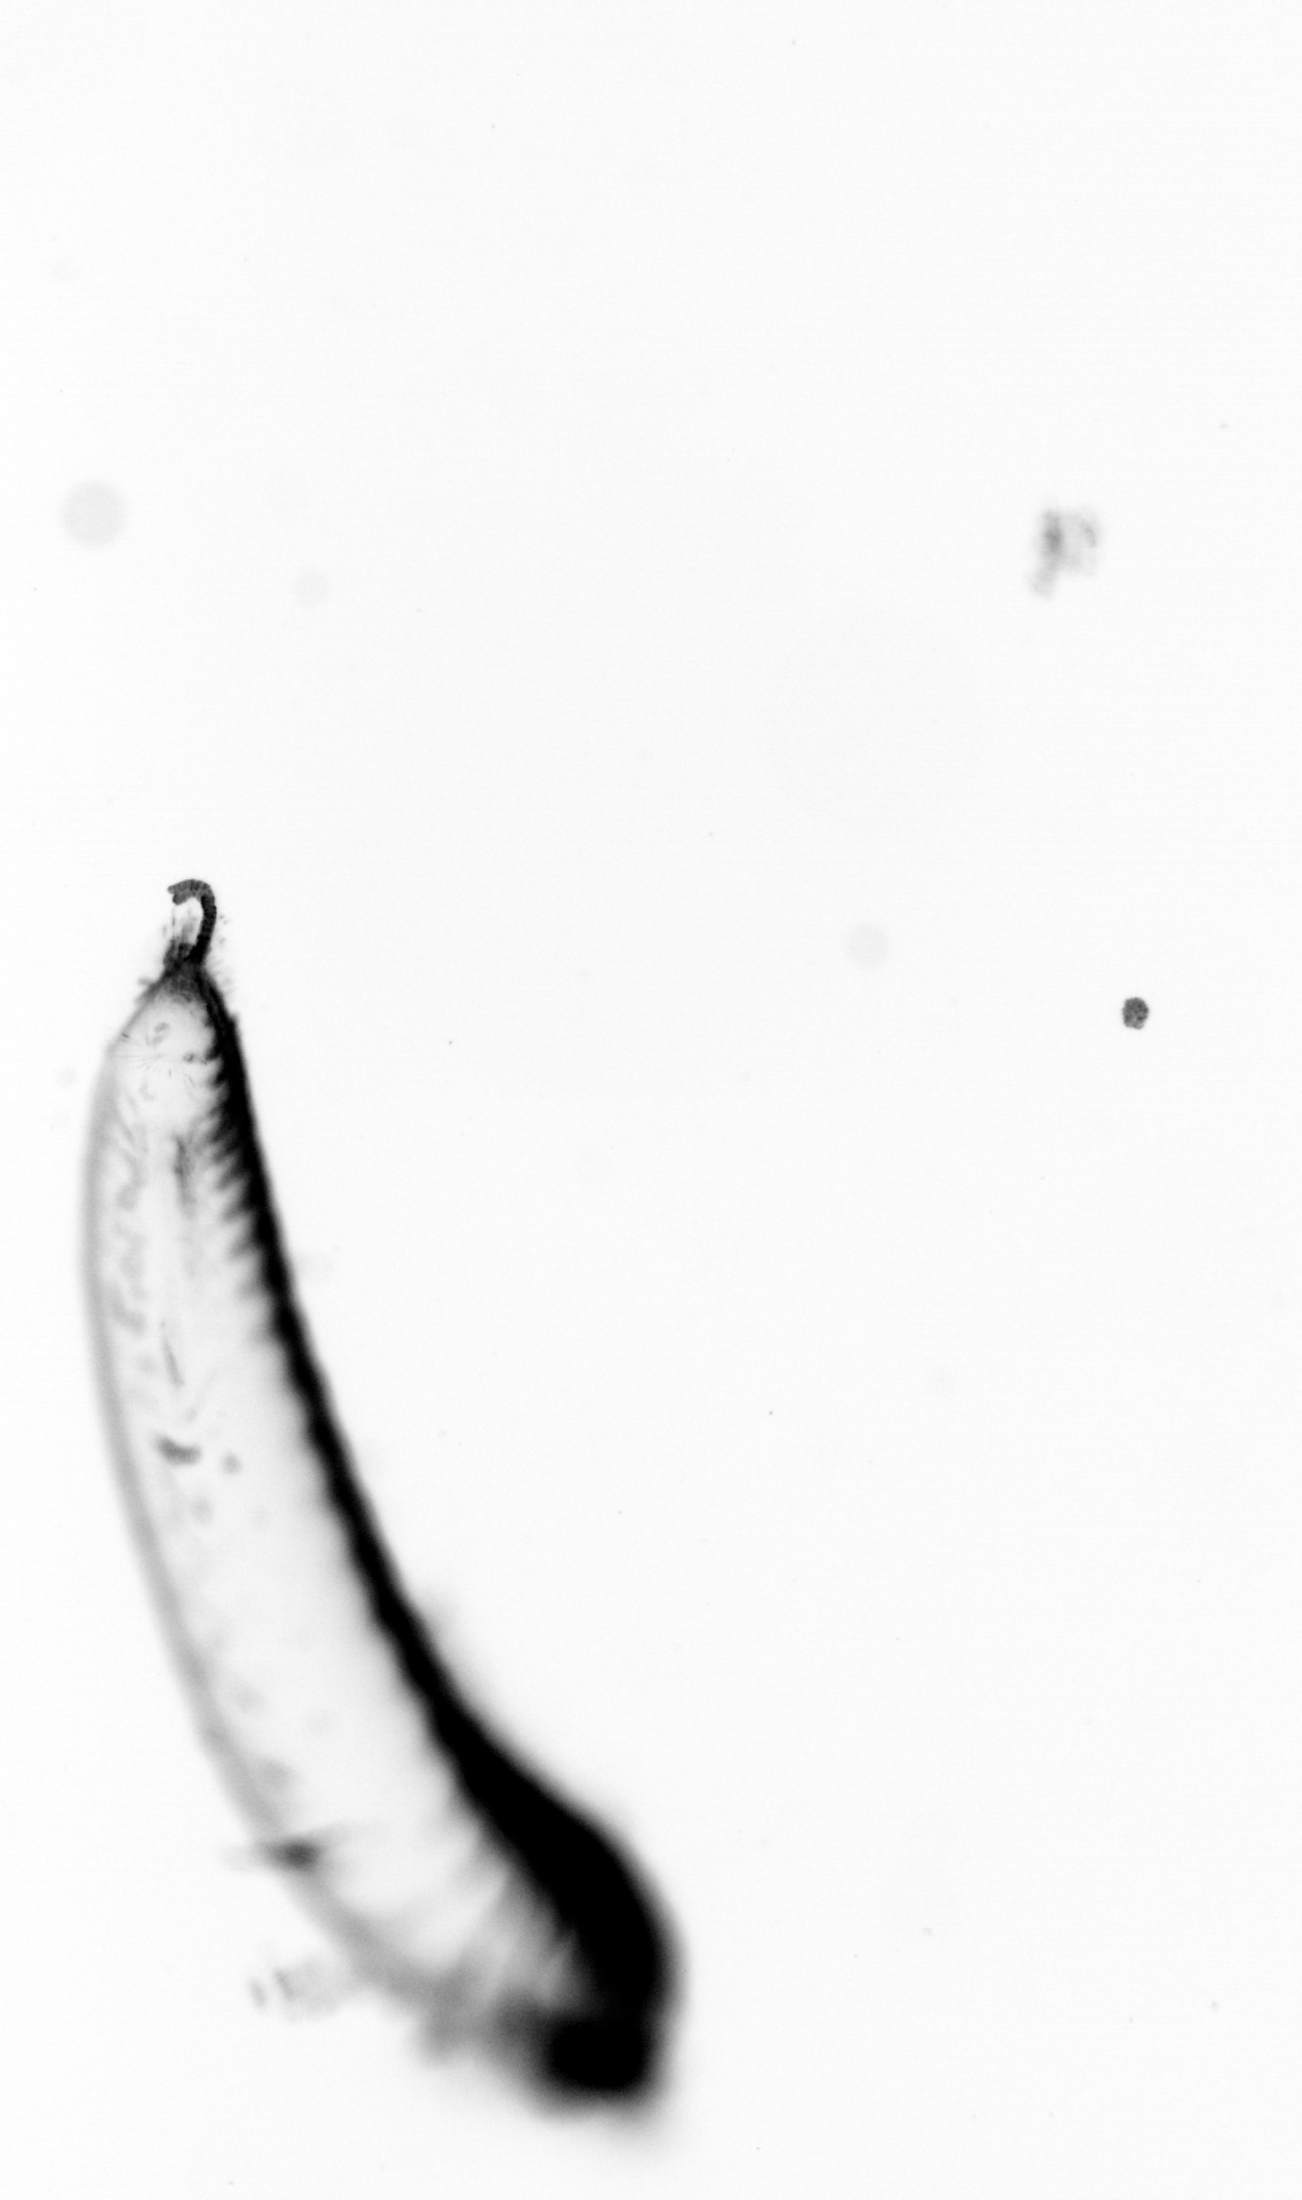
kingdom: Animalia
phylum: Annelida
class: Polychaeta
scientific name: Polychaeta
